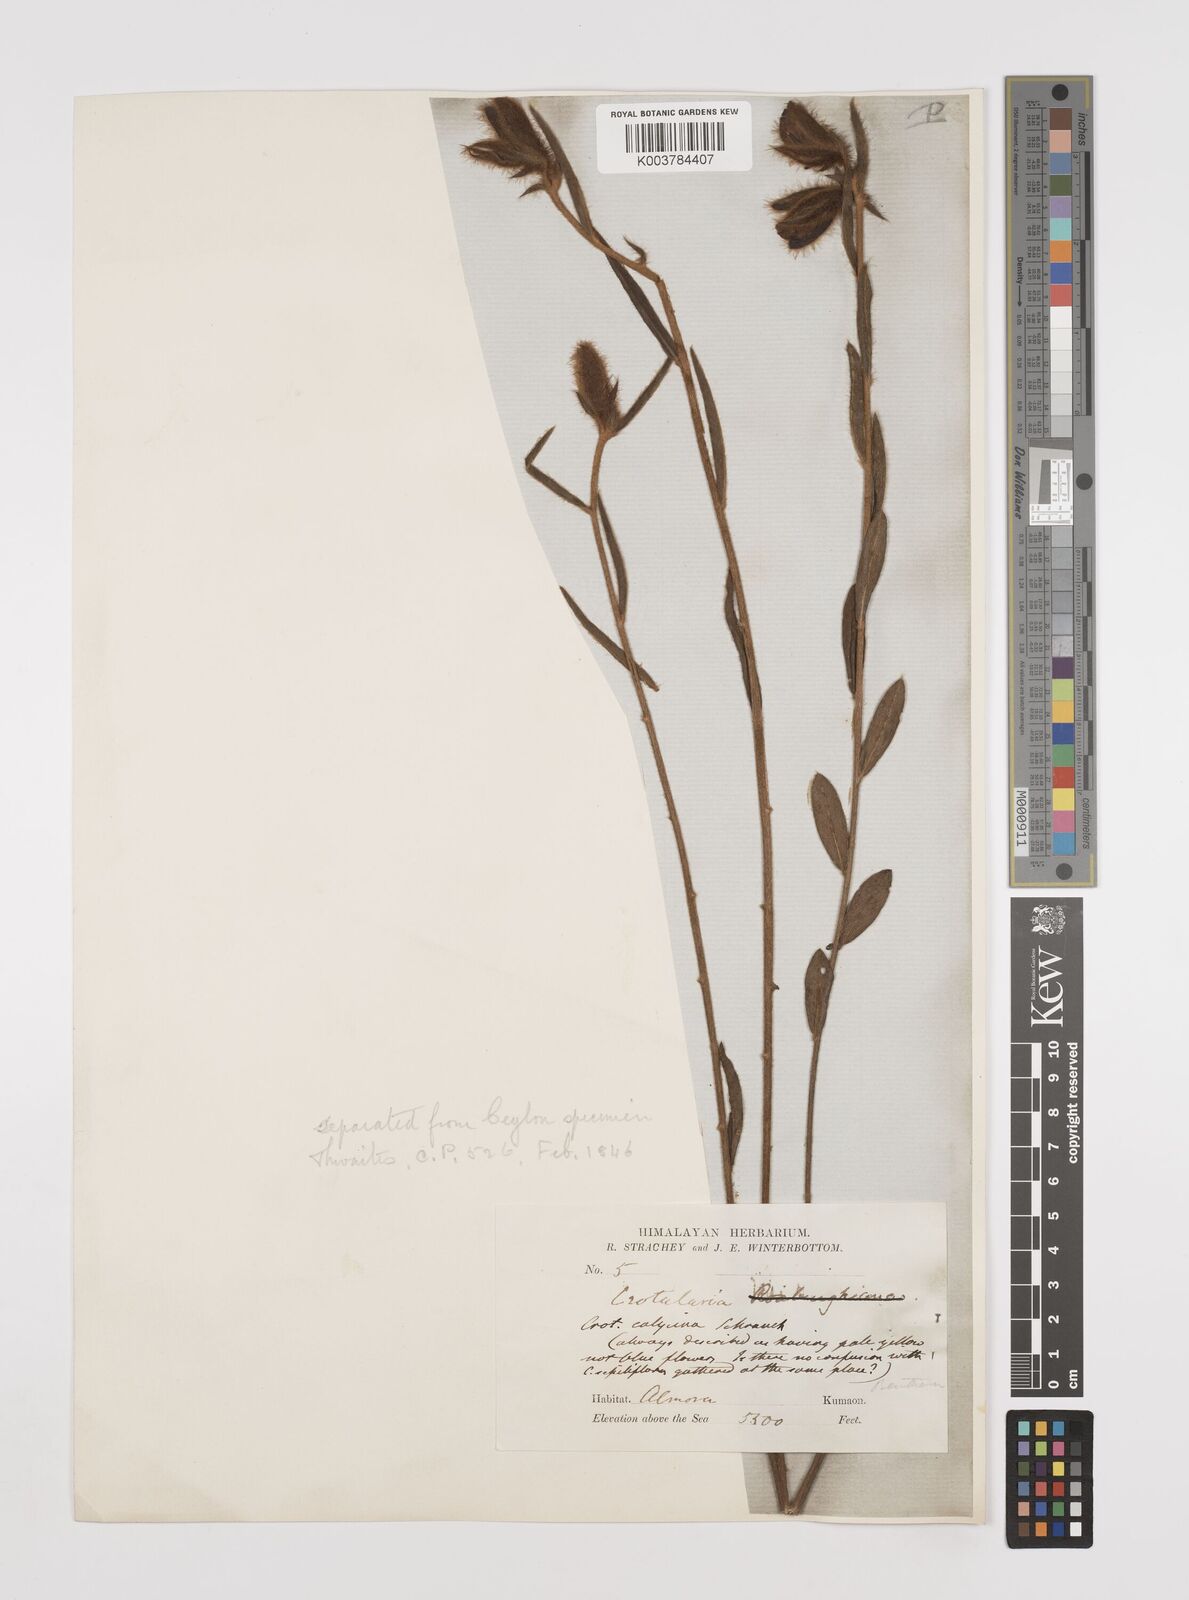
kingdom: Plantae
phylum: Tracheophyta
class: Magnoliopsida
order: Fabales
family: Fabaceae
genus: Crotalaria
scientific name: Crotalaria calycina
